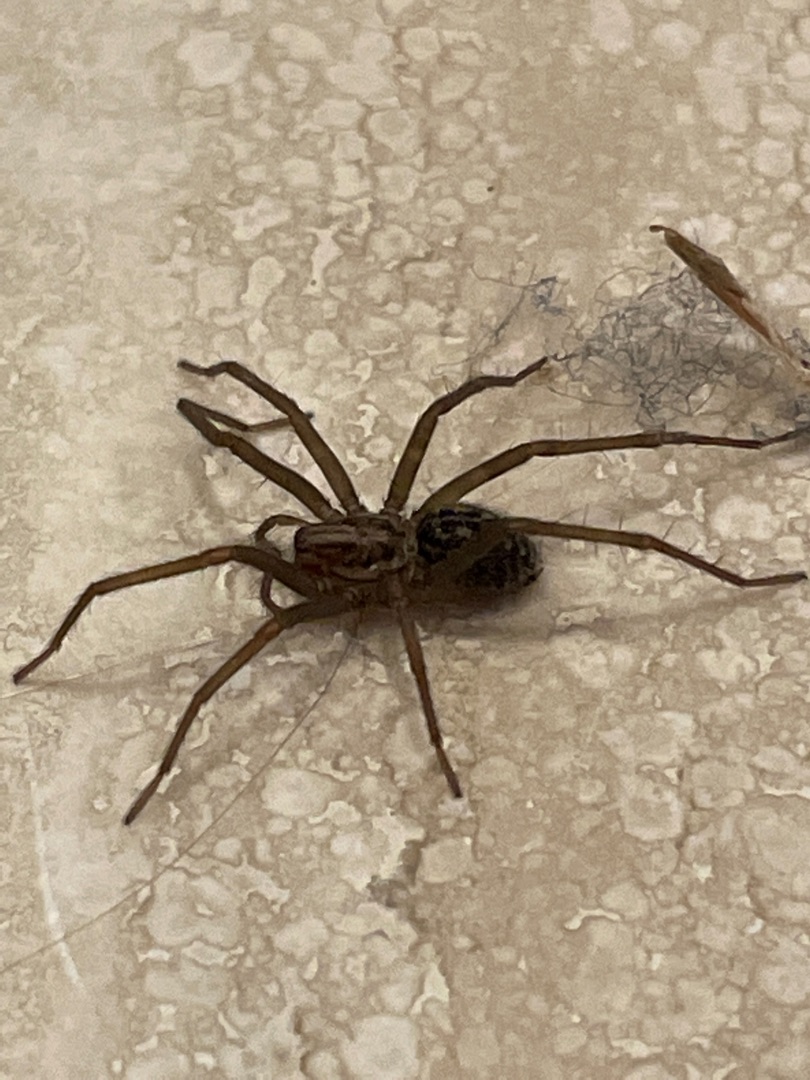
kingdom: Animalia
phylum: Arthropoda
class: Arachnida
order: Araneae
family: Agelenidae
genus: Eratigena
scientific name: Eratigena atrica
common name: Stor husedderkop
